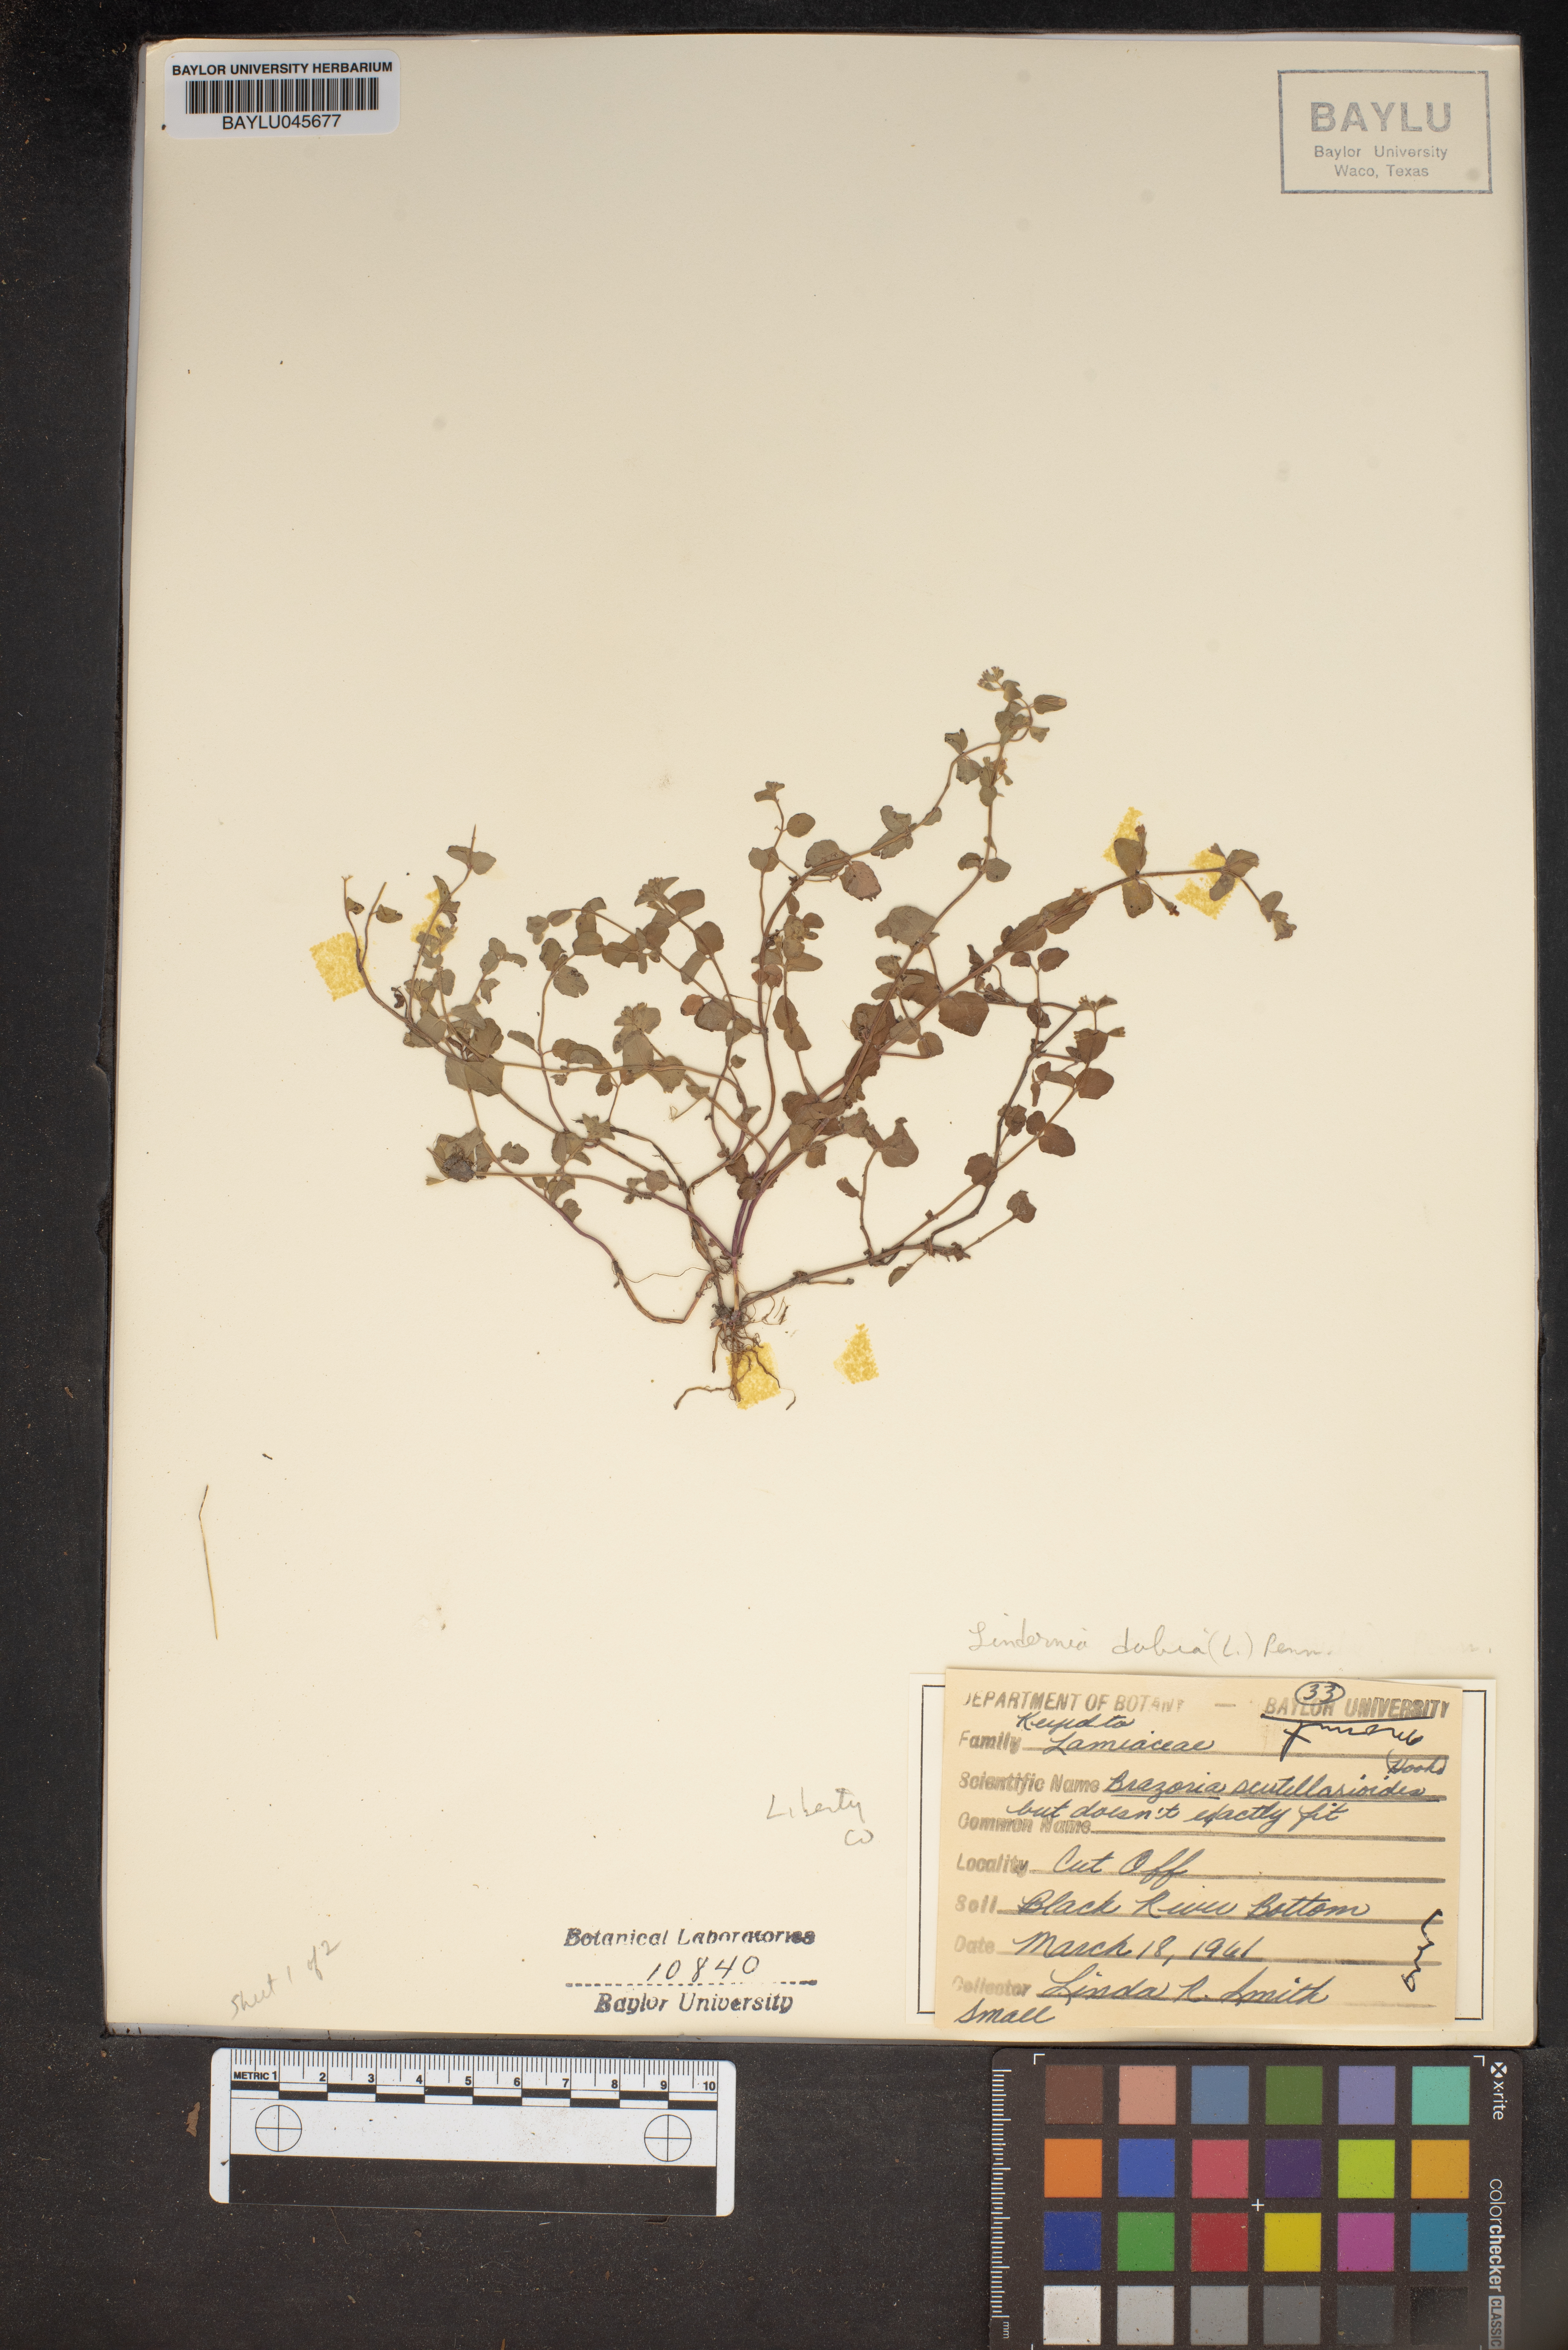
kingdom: Plantae
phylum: Tracheophyta
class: Magnoliopsida
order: Lamiales
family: Lamiaceae
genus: Warnockia
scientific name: Warnockia scutellarioides
